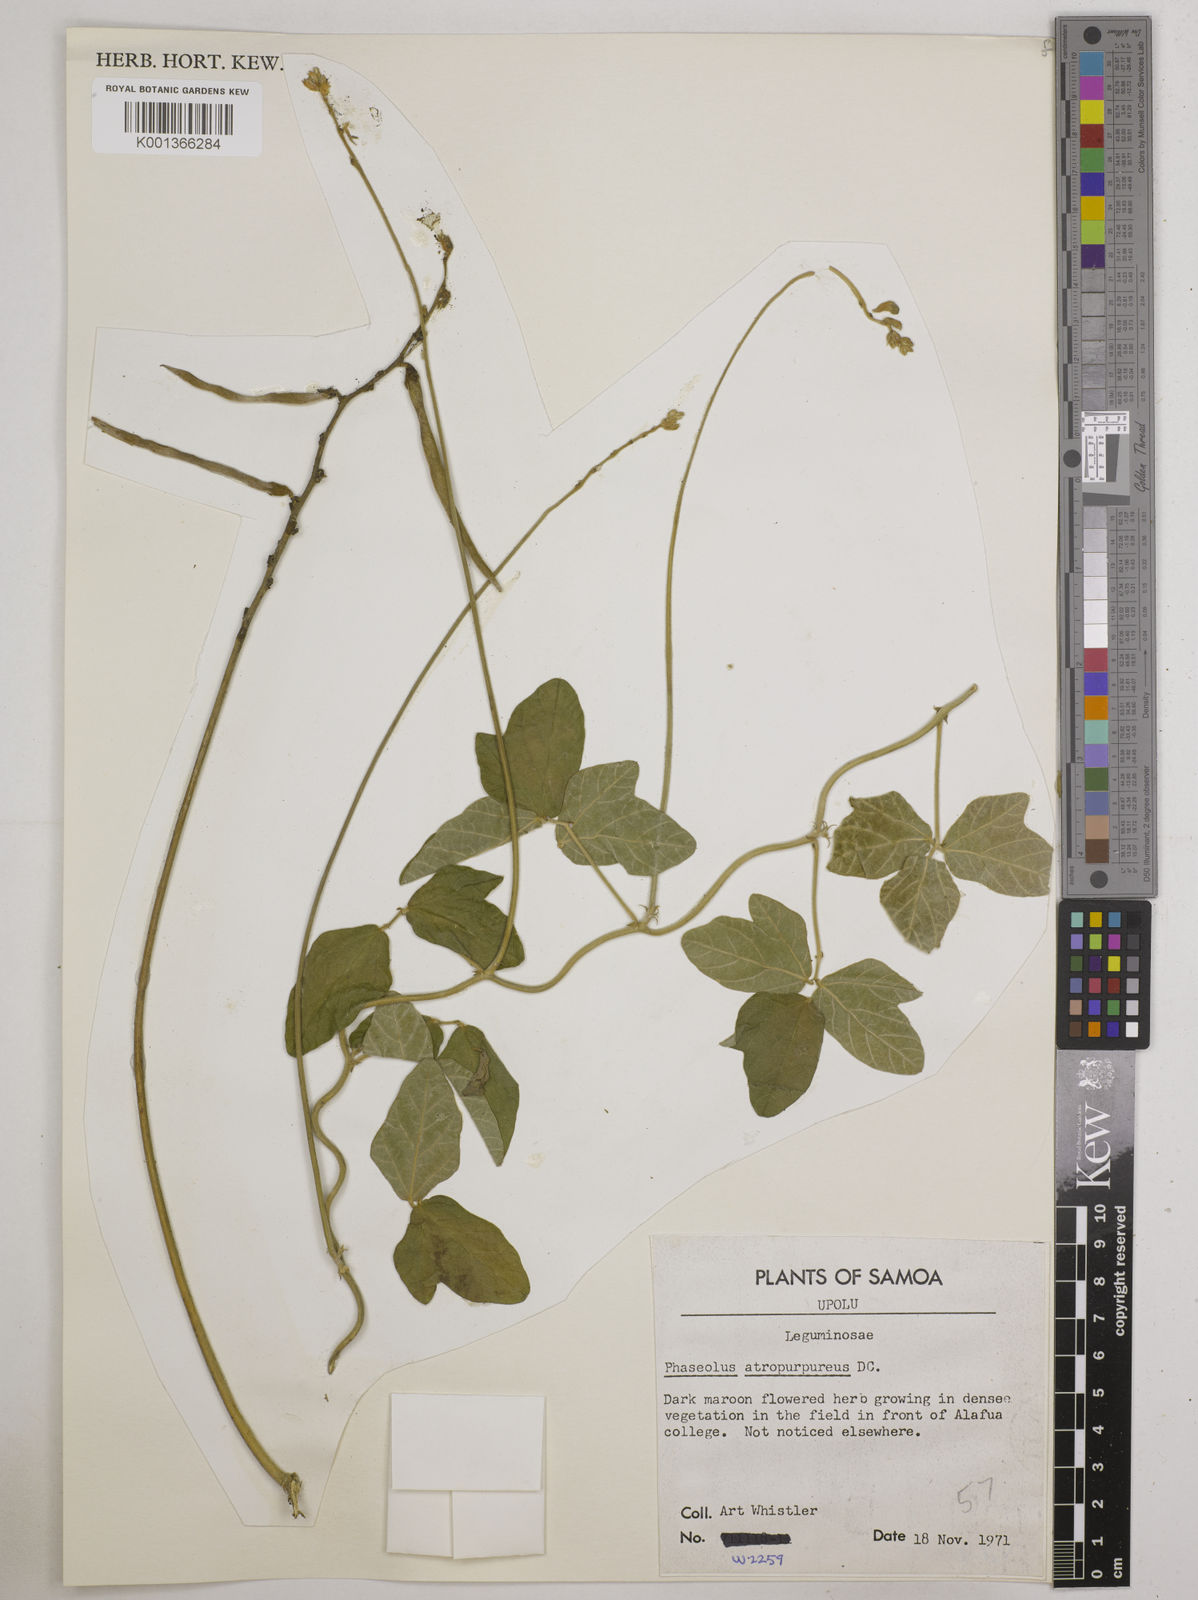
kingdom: Plantae
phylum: Tracheophyta
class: Magnoliopsida
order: Fabales
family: Fabaceae
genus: Macroptilium
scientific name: Macroptilium atropurpureum
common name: Purple bushbean
